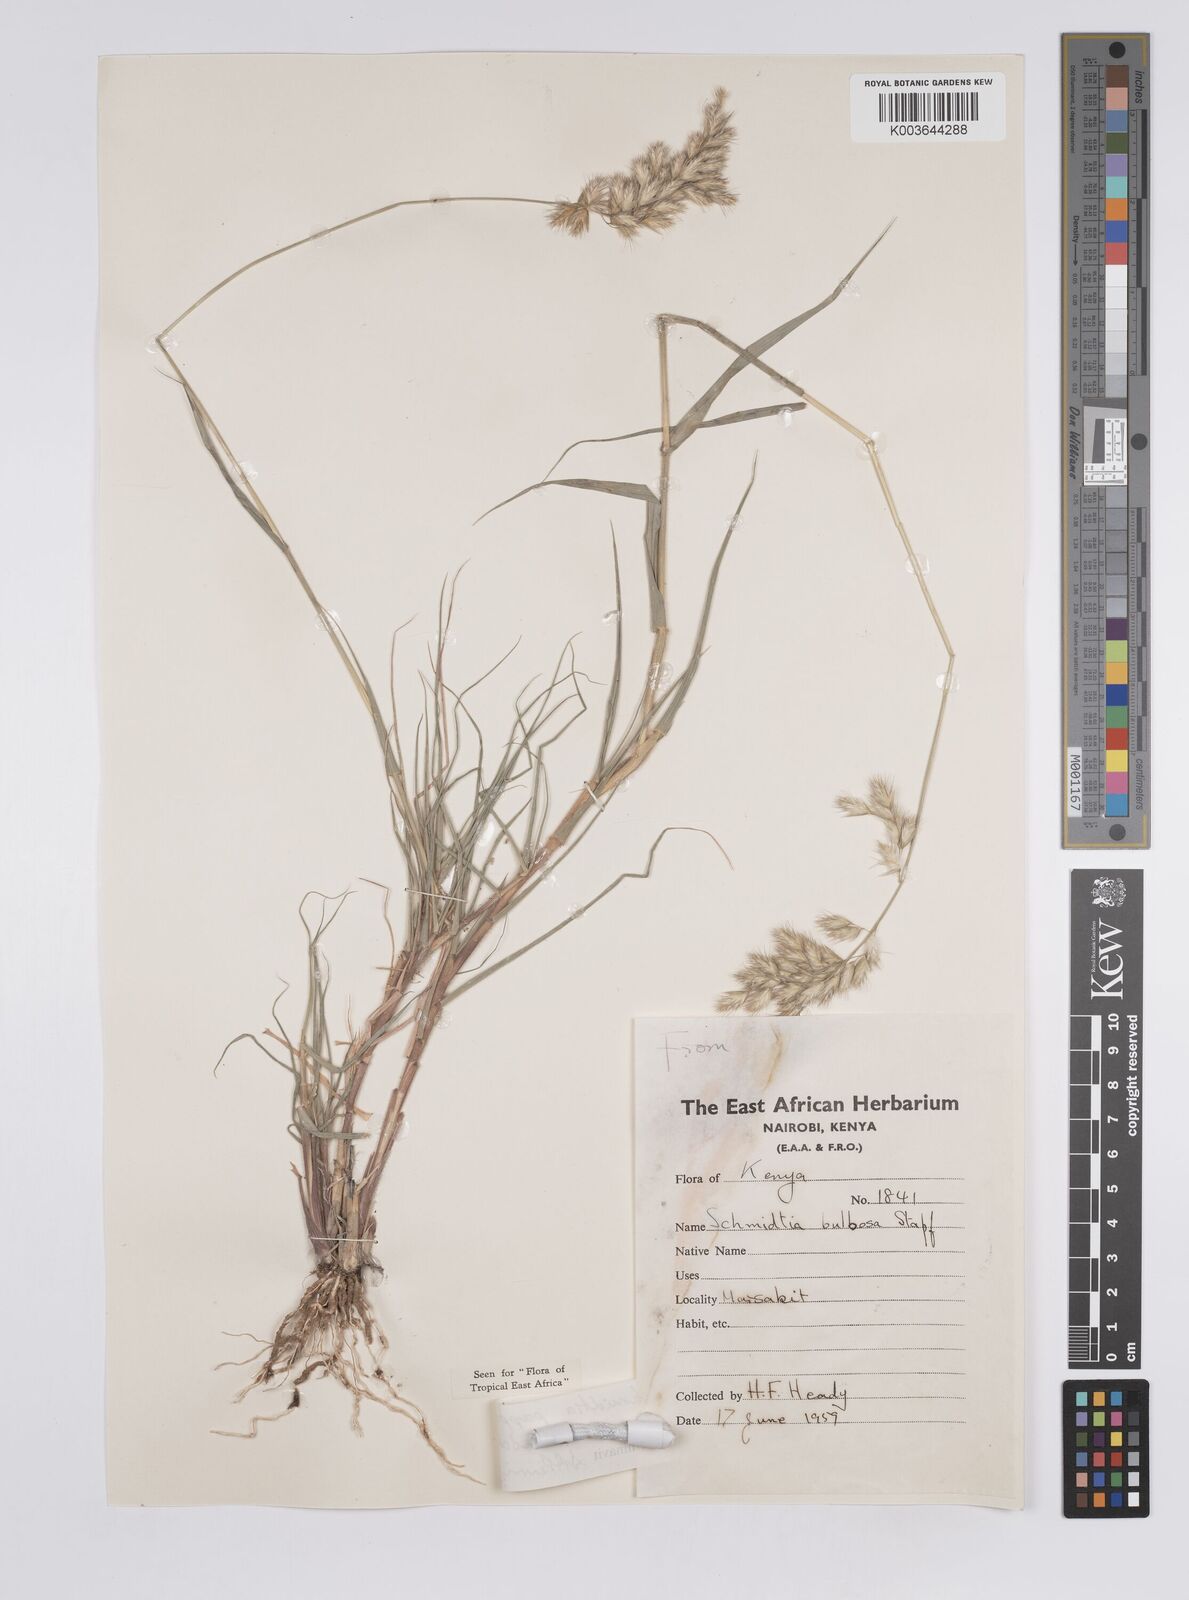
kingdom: Plantae
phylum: Tracheophyta
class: Liliopsida
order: Poales
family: Poaceae
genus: Schmidtia
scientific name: Schmidtia pappophoroides
